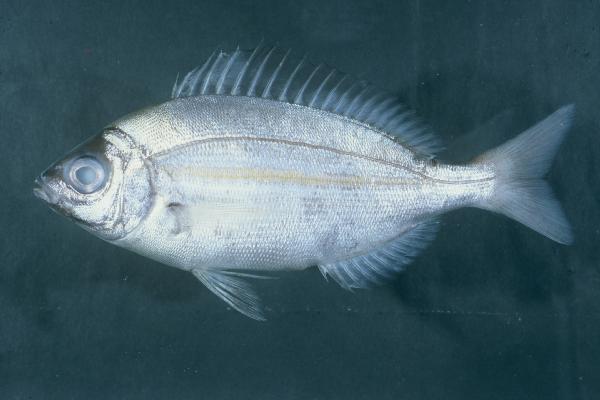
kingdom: Animalia
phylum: Chordata
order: Perciformes
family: Sparidae
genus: Spondyliosoma
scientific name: Spondyliosoma emarginatum
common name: Steentje seabream
